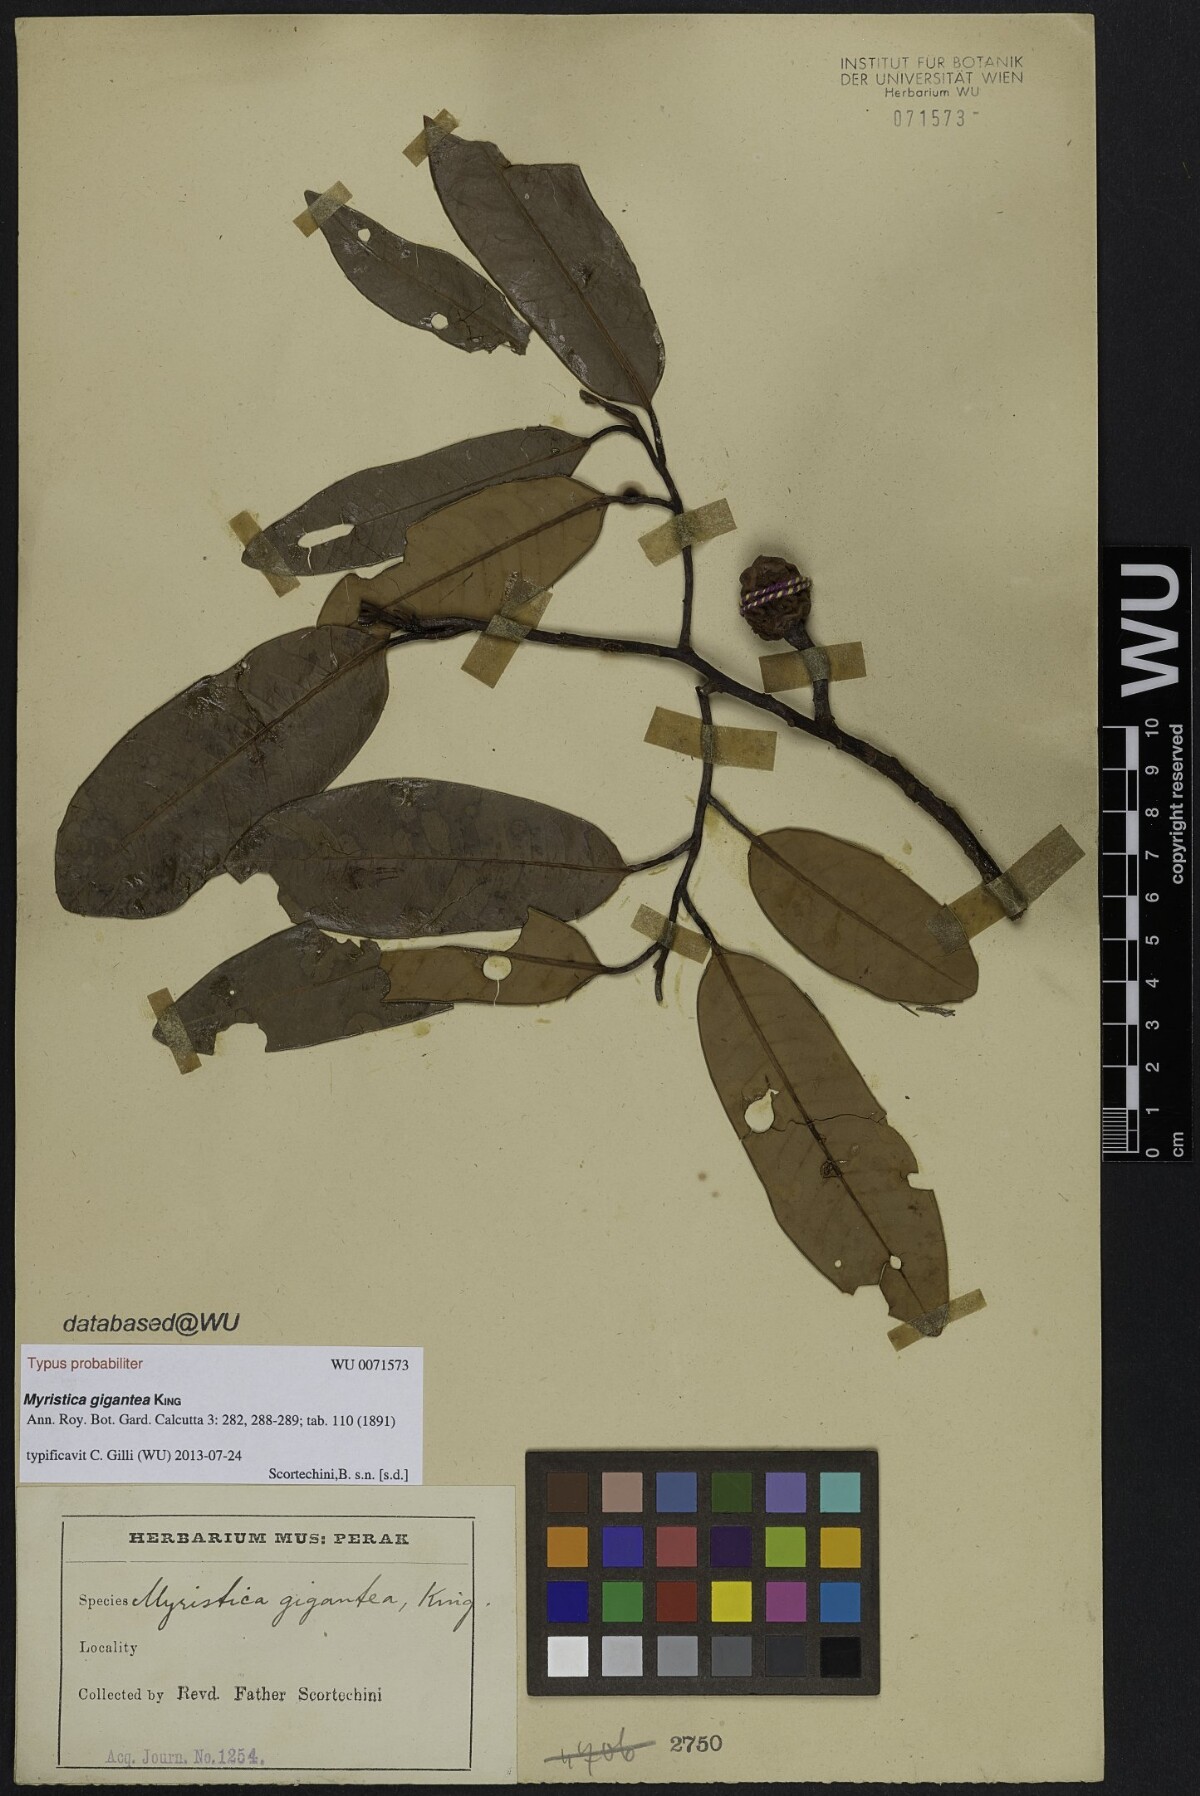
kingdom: Plantae
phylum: Tracheophyta
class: Magnoliopsida
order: Magnoliales
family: Myristicaceae
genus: Myristica
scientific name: Myristica gigantea
